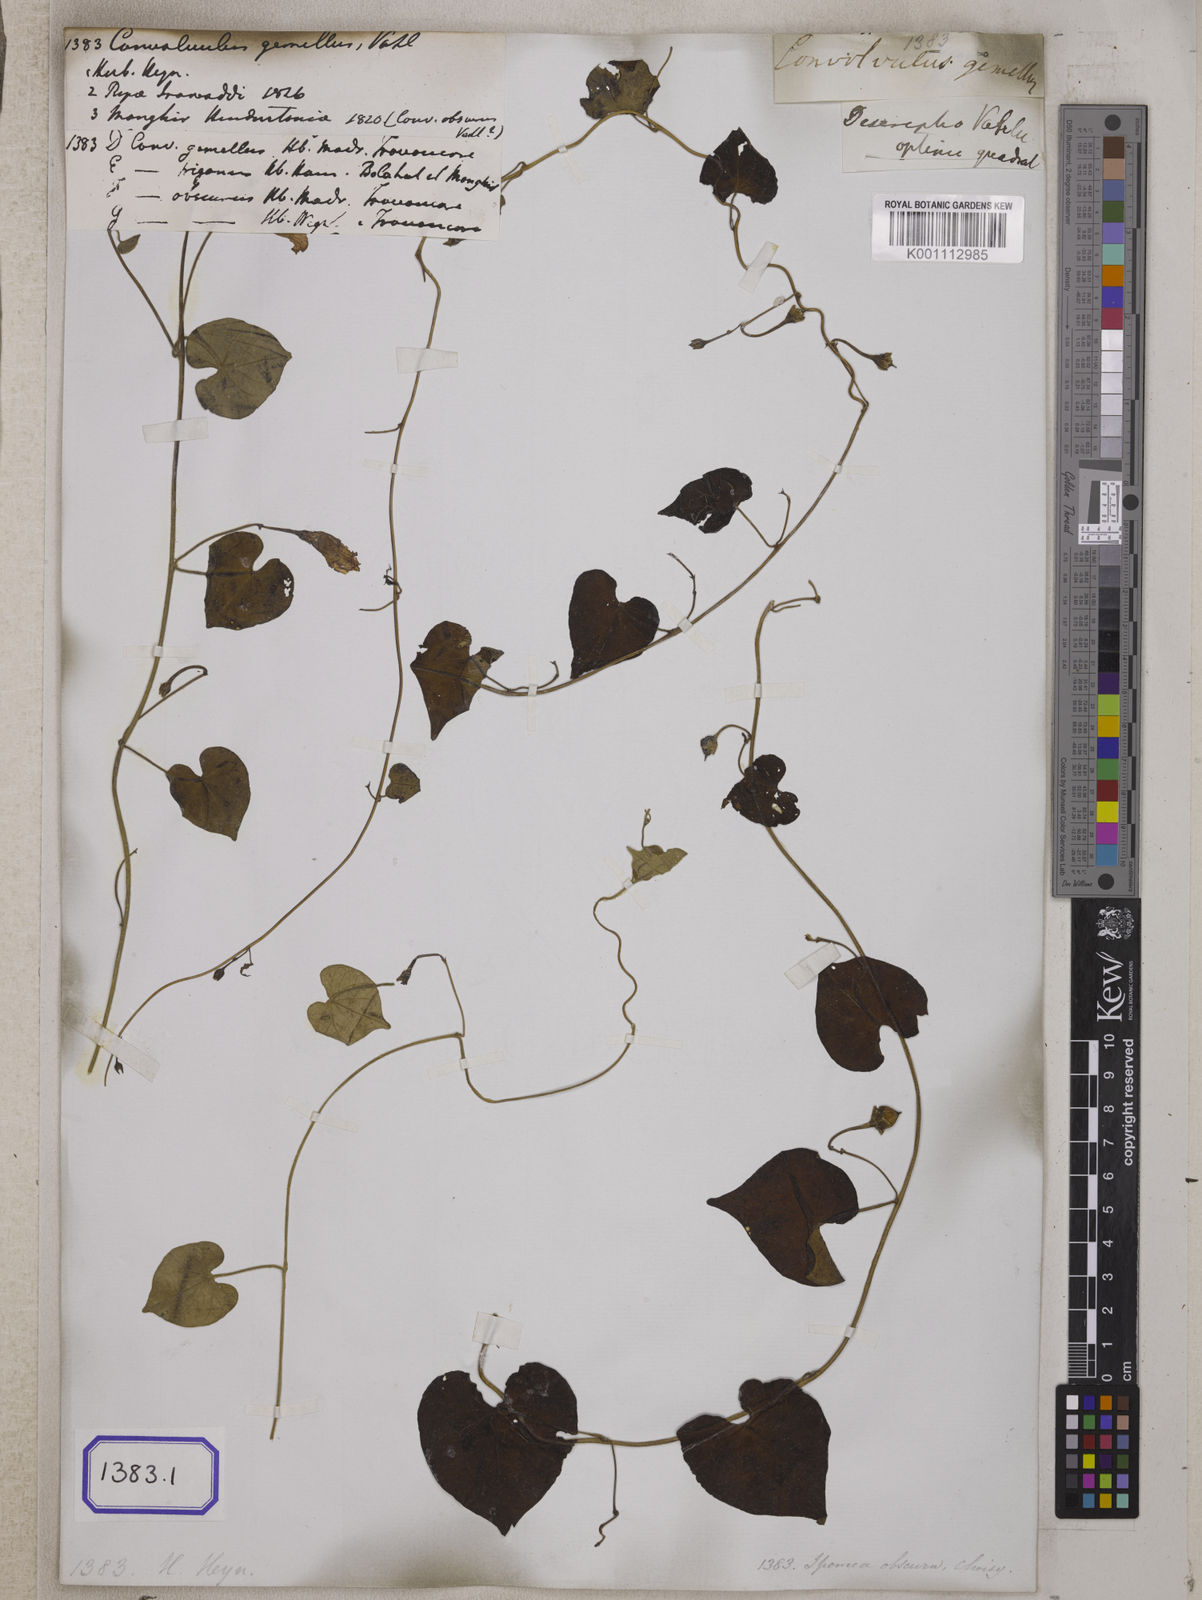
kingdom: Plantae
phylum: Tracheophyta
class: Magnoliopsida
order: Solanales
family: Convolvulaceae
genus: Convolvulus
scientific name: Convolvulus
